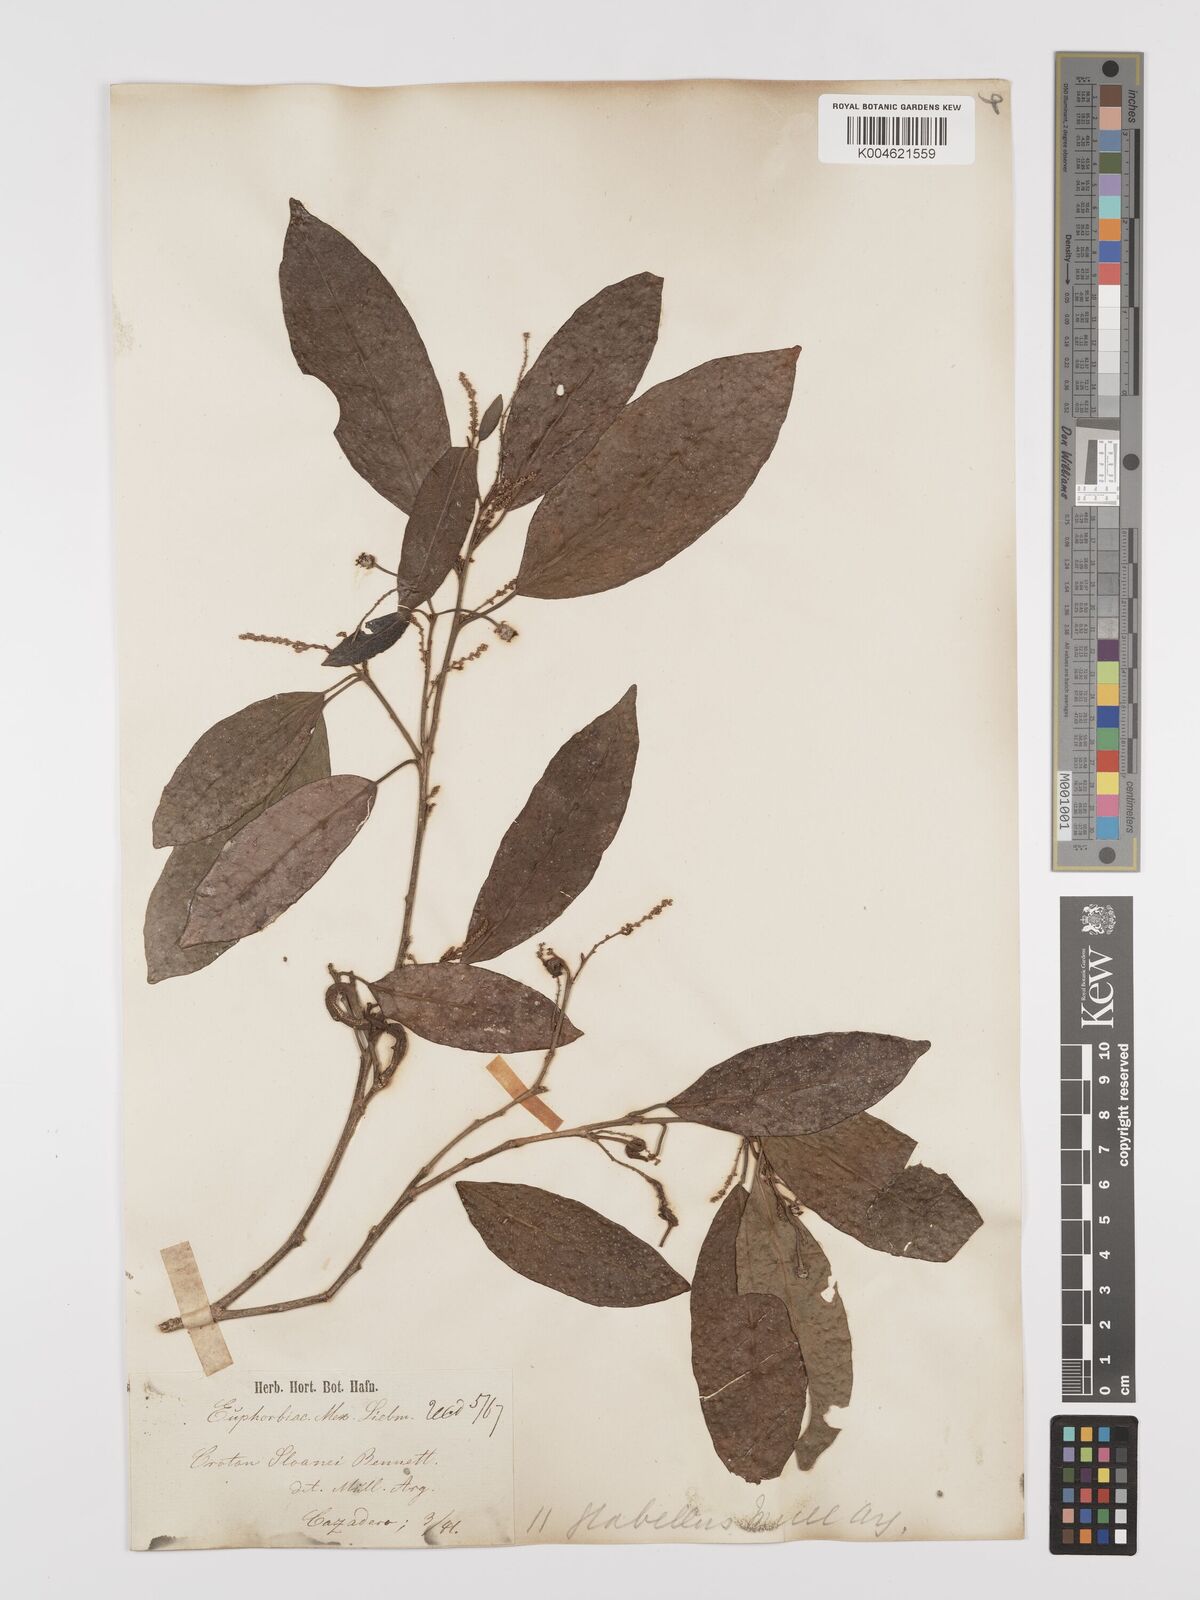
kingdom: Plantae
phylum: Tracheophyta
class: Magnoliopsida
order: Malpighiales
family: Euphorbiaceae
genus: Croton
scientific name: Croton glabellus
